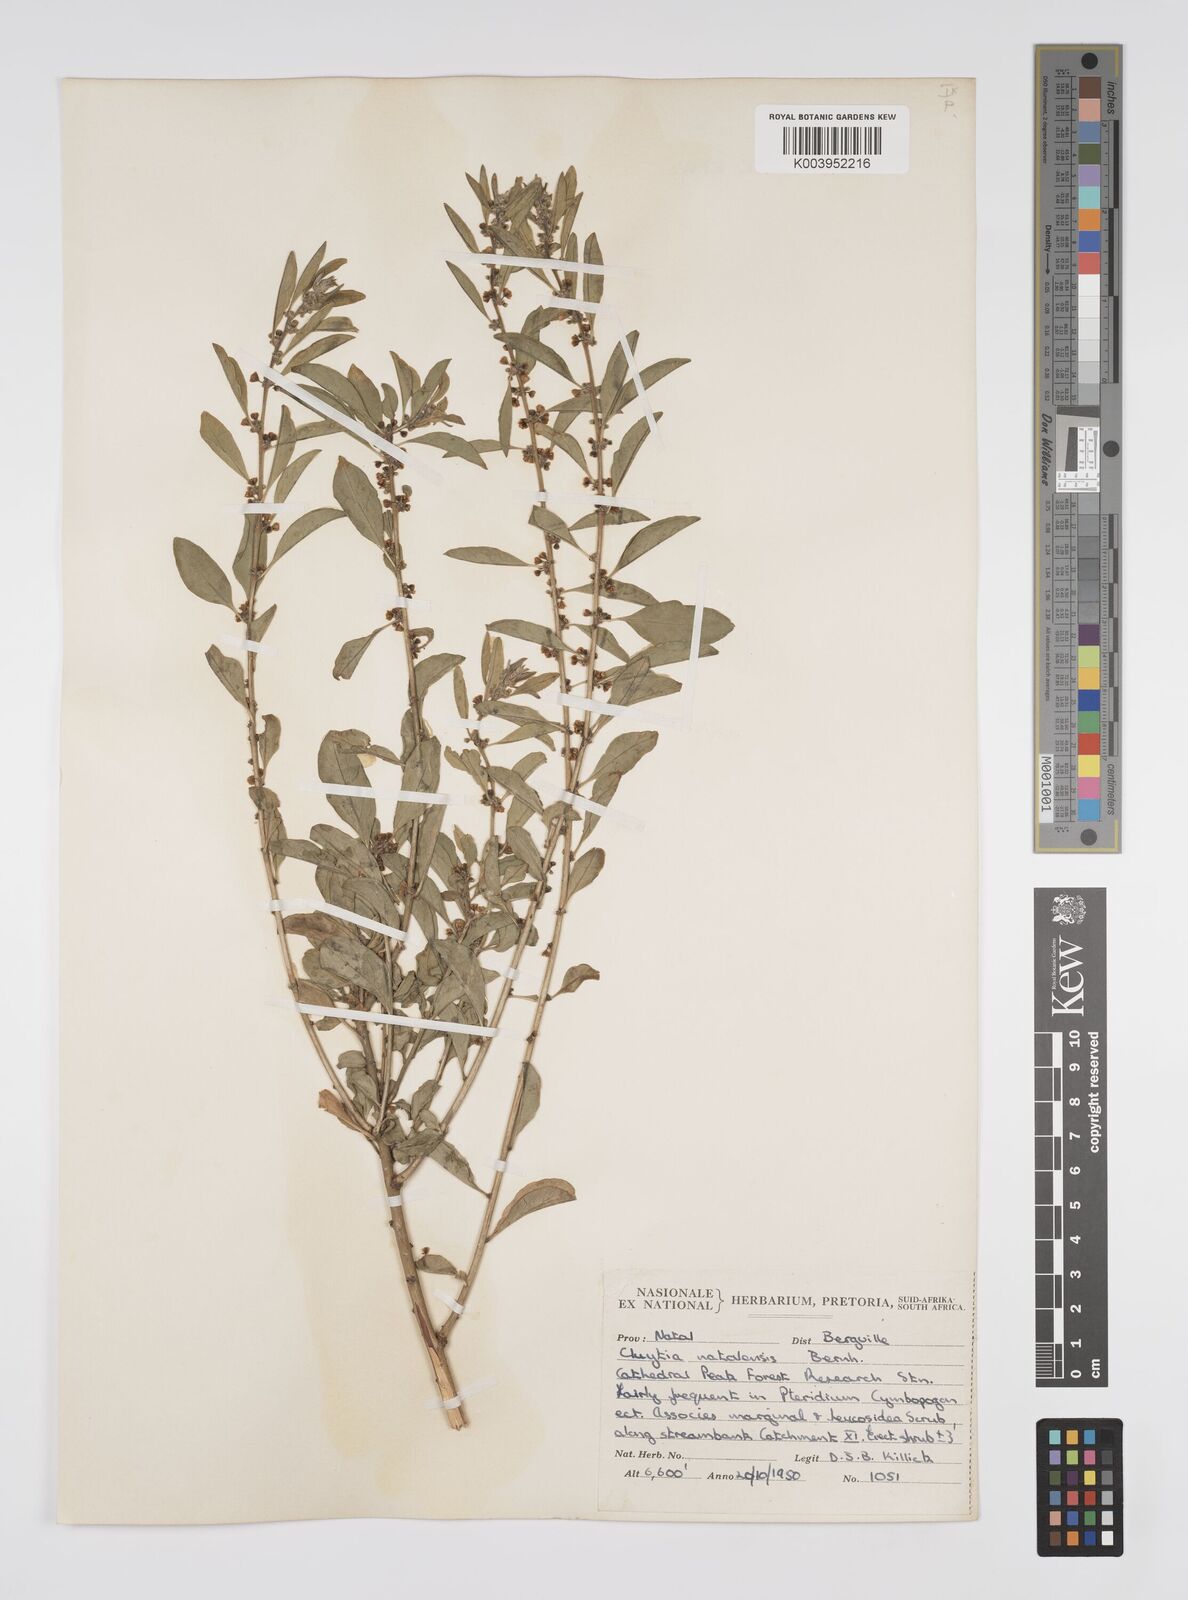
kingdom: Plantae
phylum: Tracheophyta
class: Magnoliopsida
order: Malpighiales
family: Peraceae
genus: Clutia
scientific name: Clutia natalensis
